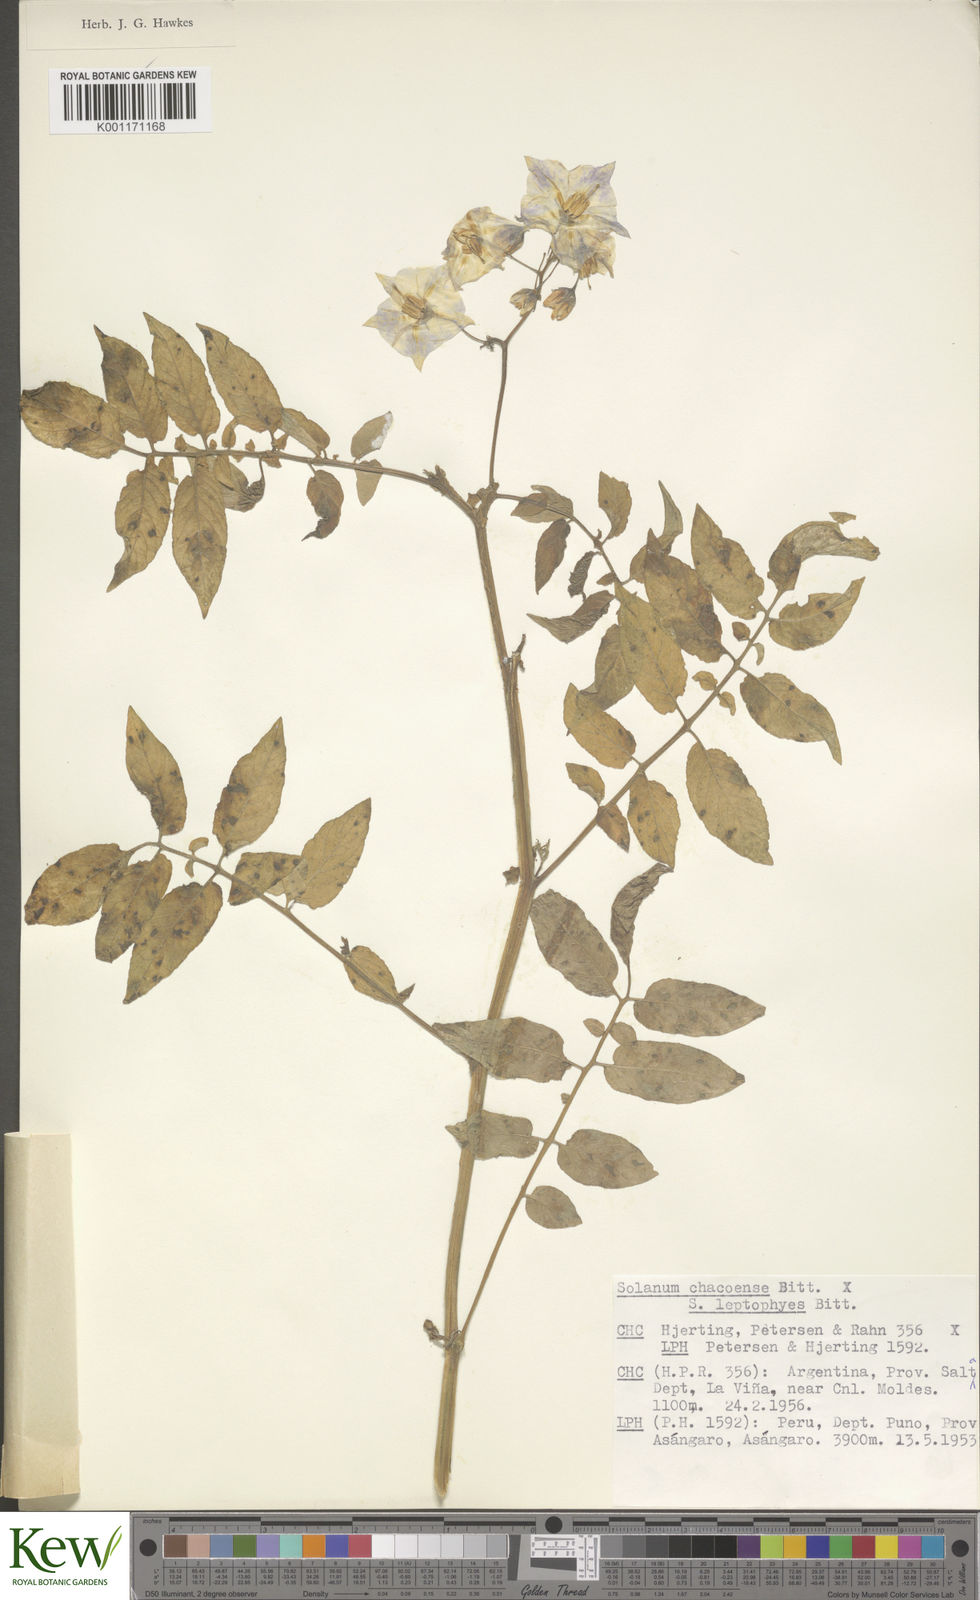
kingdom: Plantae
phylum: Tracheophyta
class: Magnoliopsida
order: Solanales
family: Solanaceae
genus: Solanum
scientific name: Solanum chacoense
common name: Chaco potato
